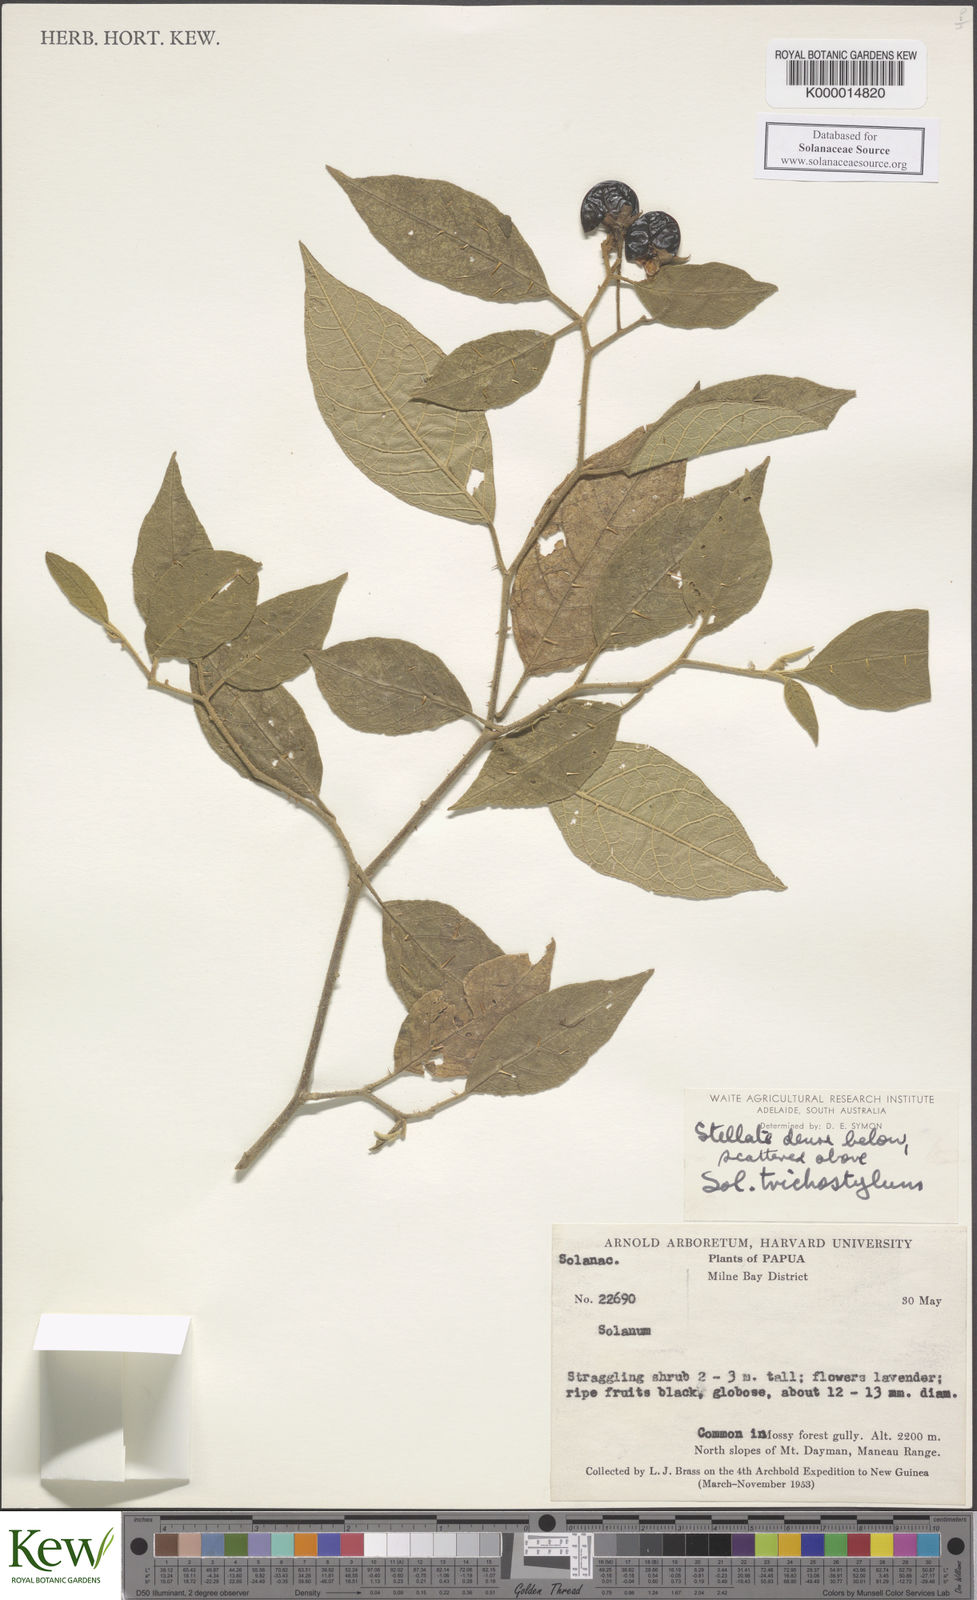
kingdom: Plantae
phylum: Tracheophyta
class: Magnoliopsida
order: Solanales
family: Solanaceae
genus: Solanum
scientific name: Solanum trichostylum
